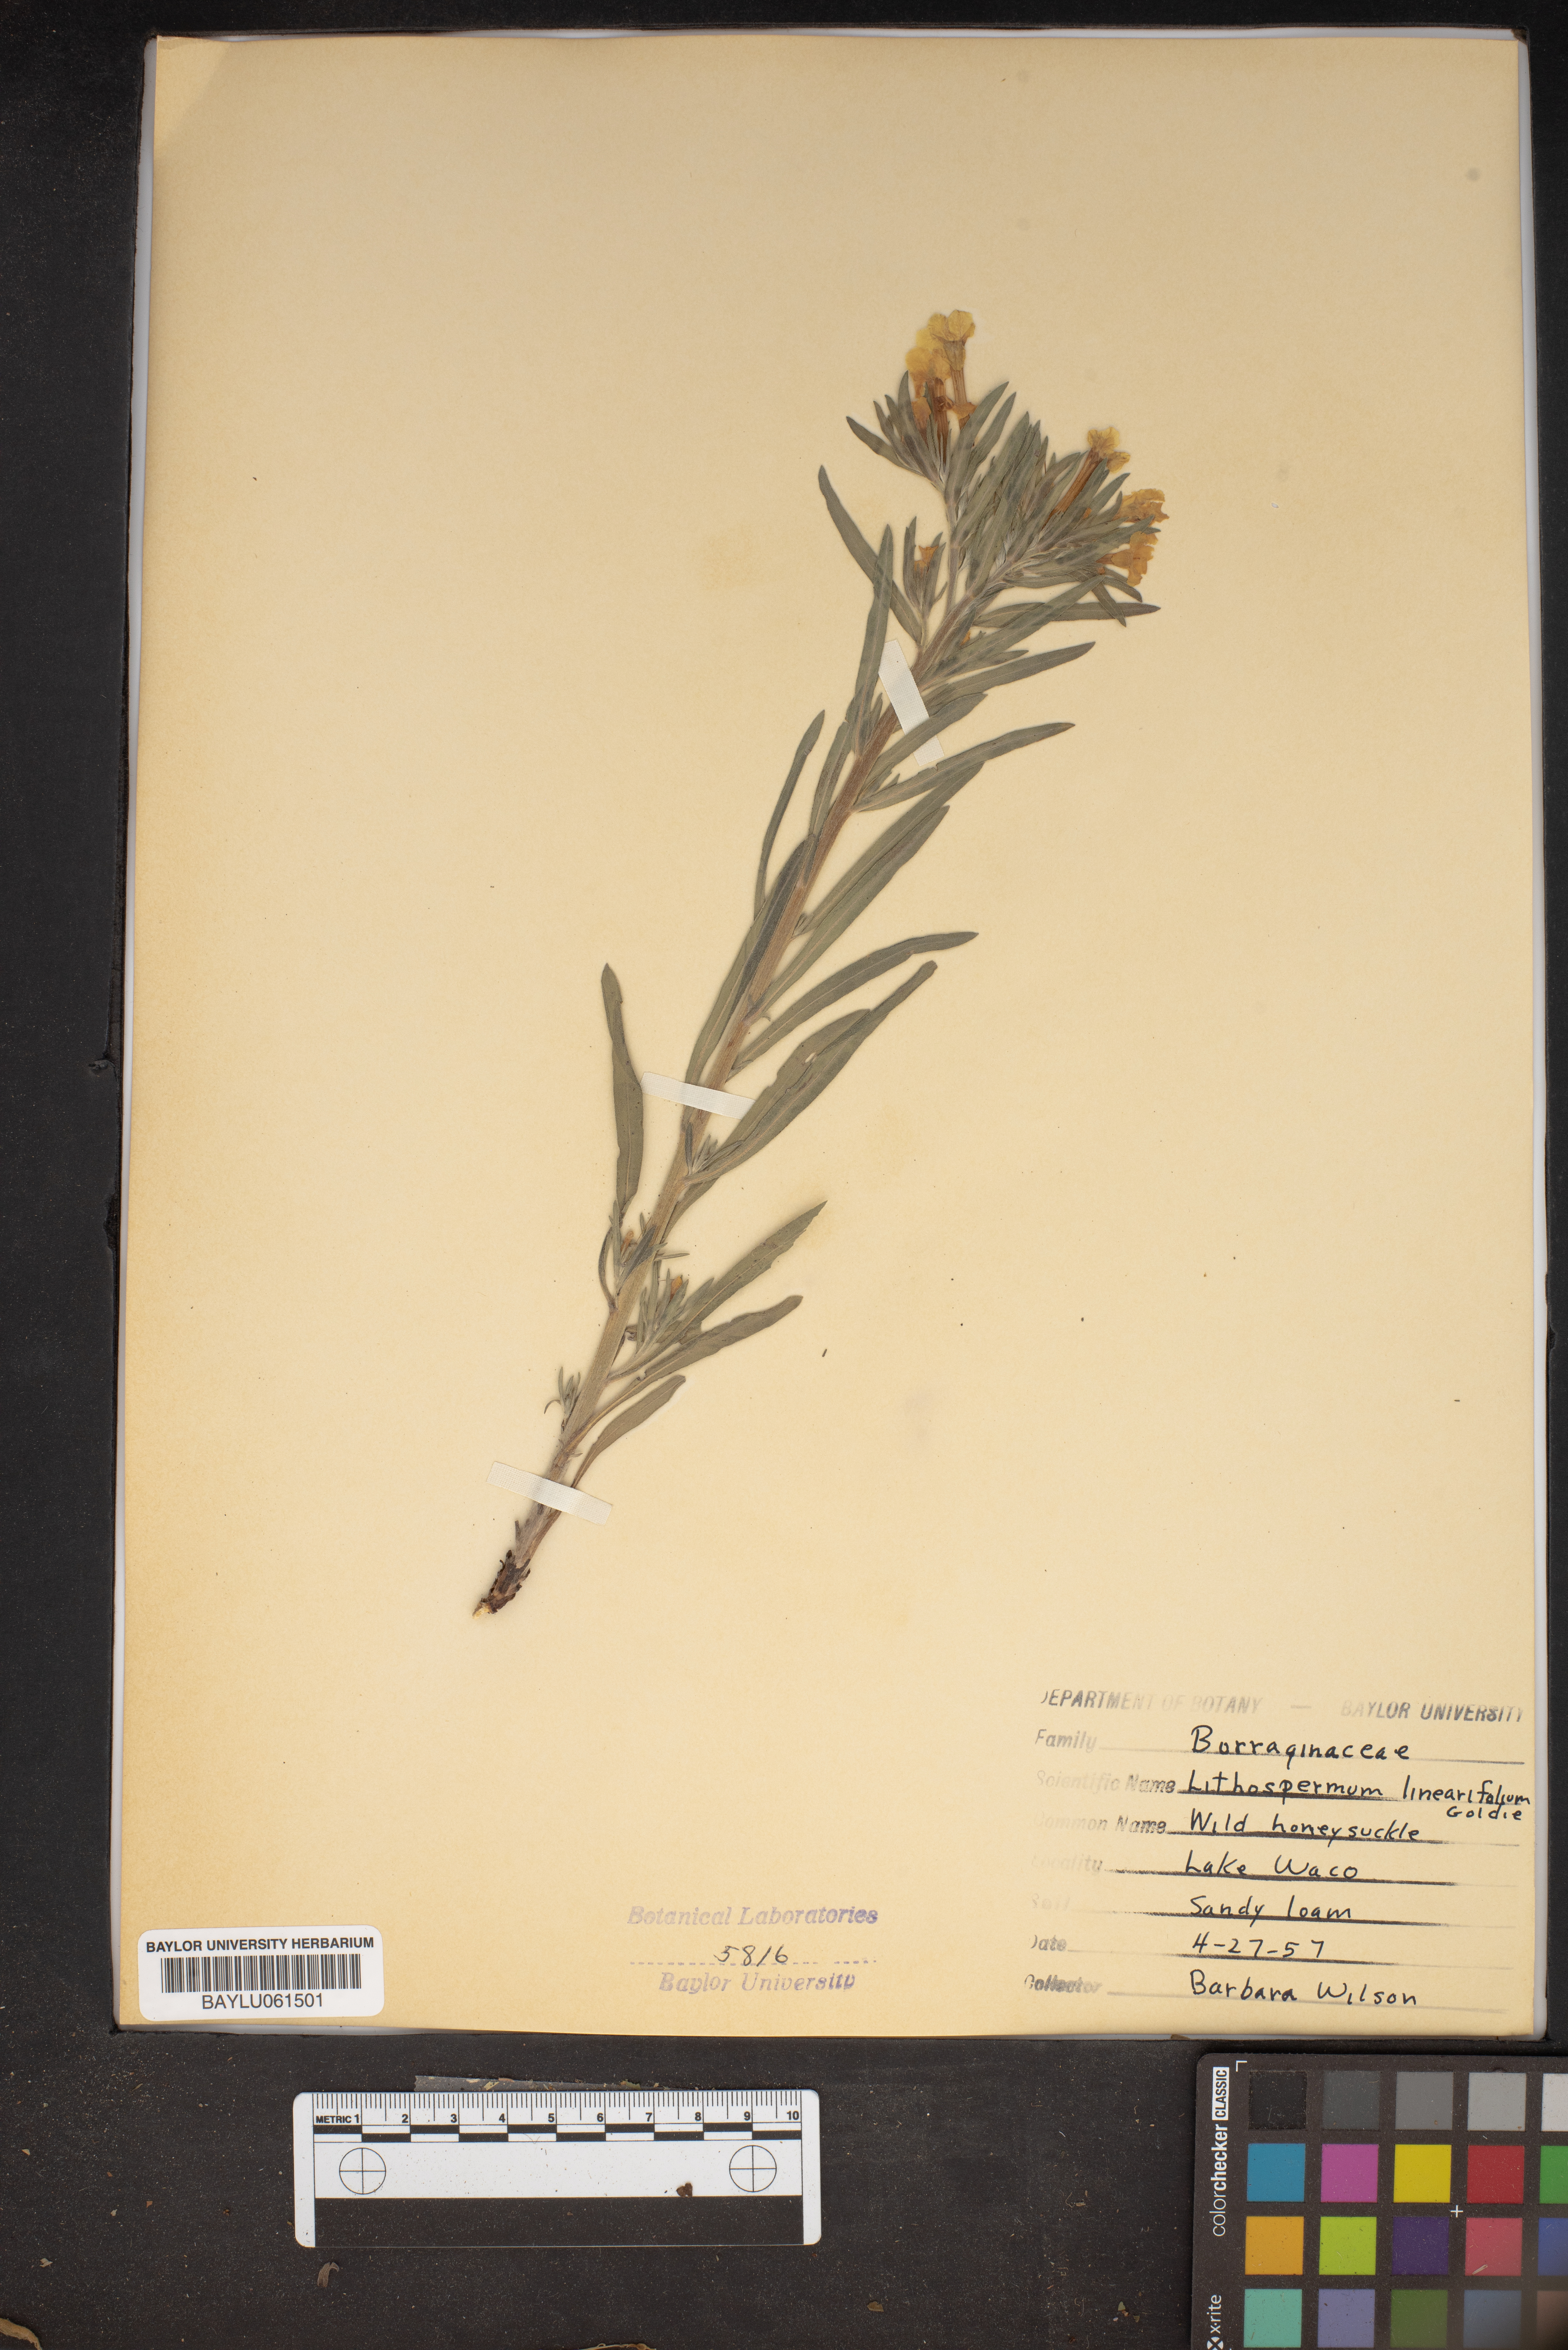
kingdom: Plantae
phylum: Tracheophyta
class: Magnoliopsida
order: Boraginales
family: Boraginaceae
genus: Lithospermum
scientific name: Lithospermum incisum
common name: Fringed gromwell
